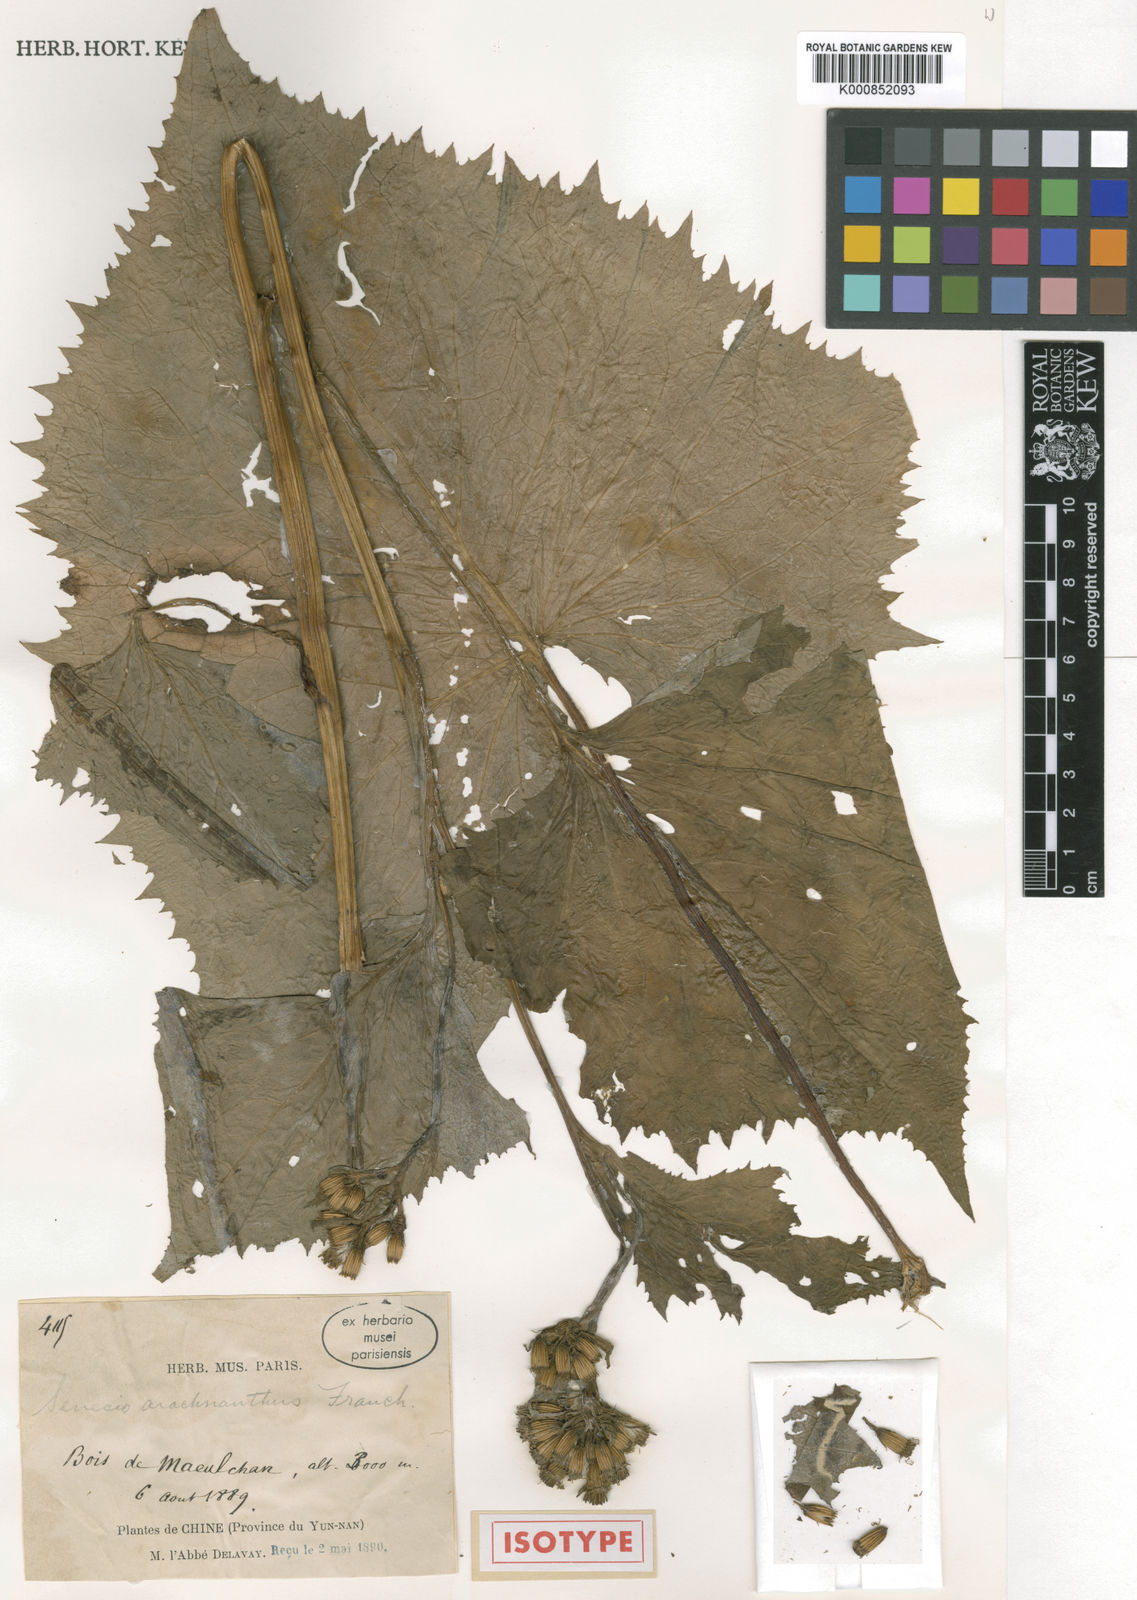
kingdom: Plantae
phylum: Tracheophyta
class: Magnoliopsida
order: Asterales
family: Asteraceae
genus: Senecio
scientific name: Senecio arachnanthus
